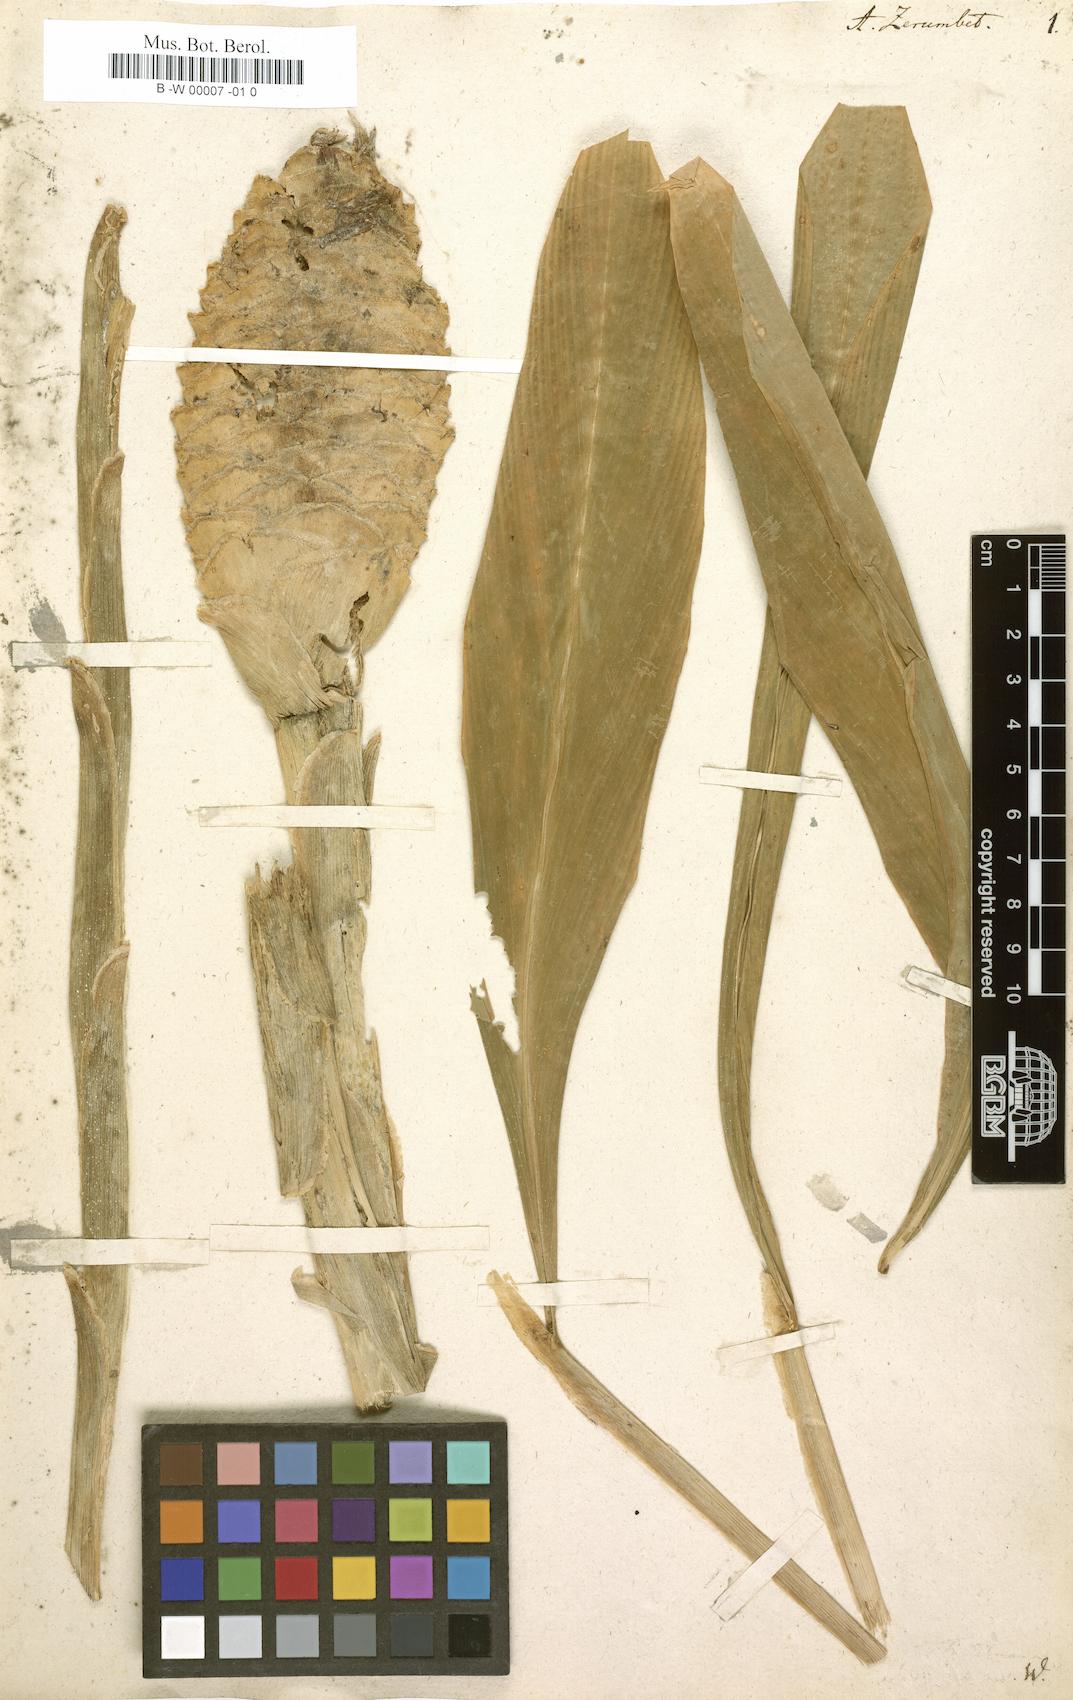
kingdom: Plantae
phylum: Tracheophyta
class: Liliopsida
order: Zingiberales
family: Zingiberaceae
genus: Zingiber
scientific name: Zingiber zerumbet
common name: Bitter ginger
